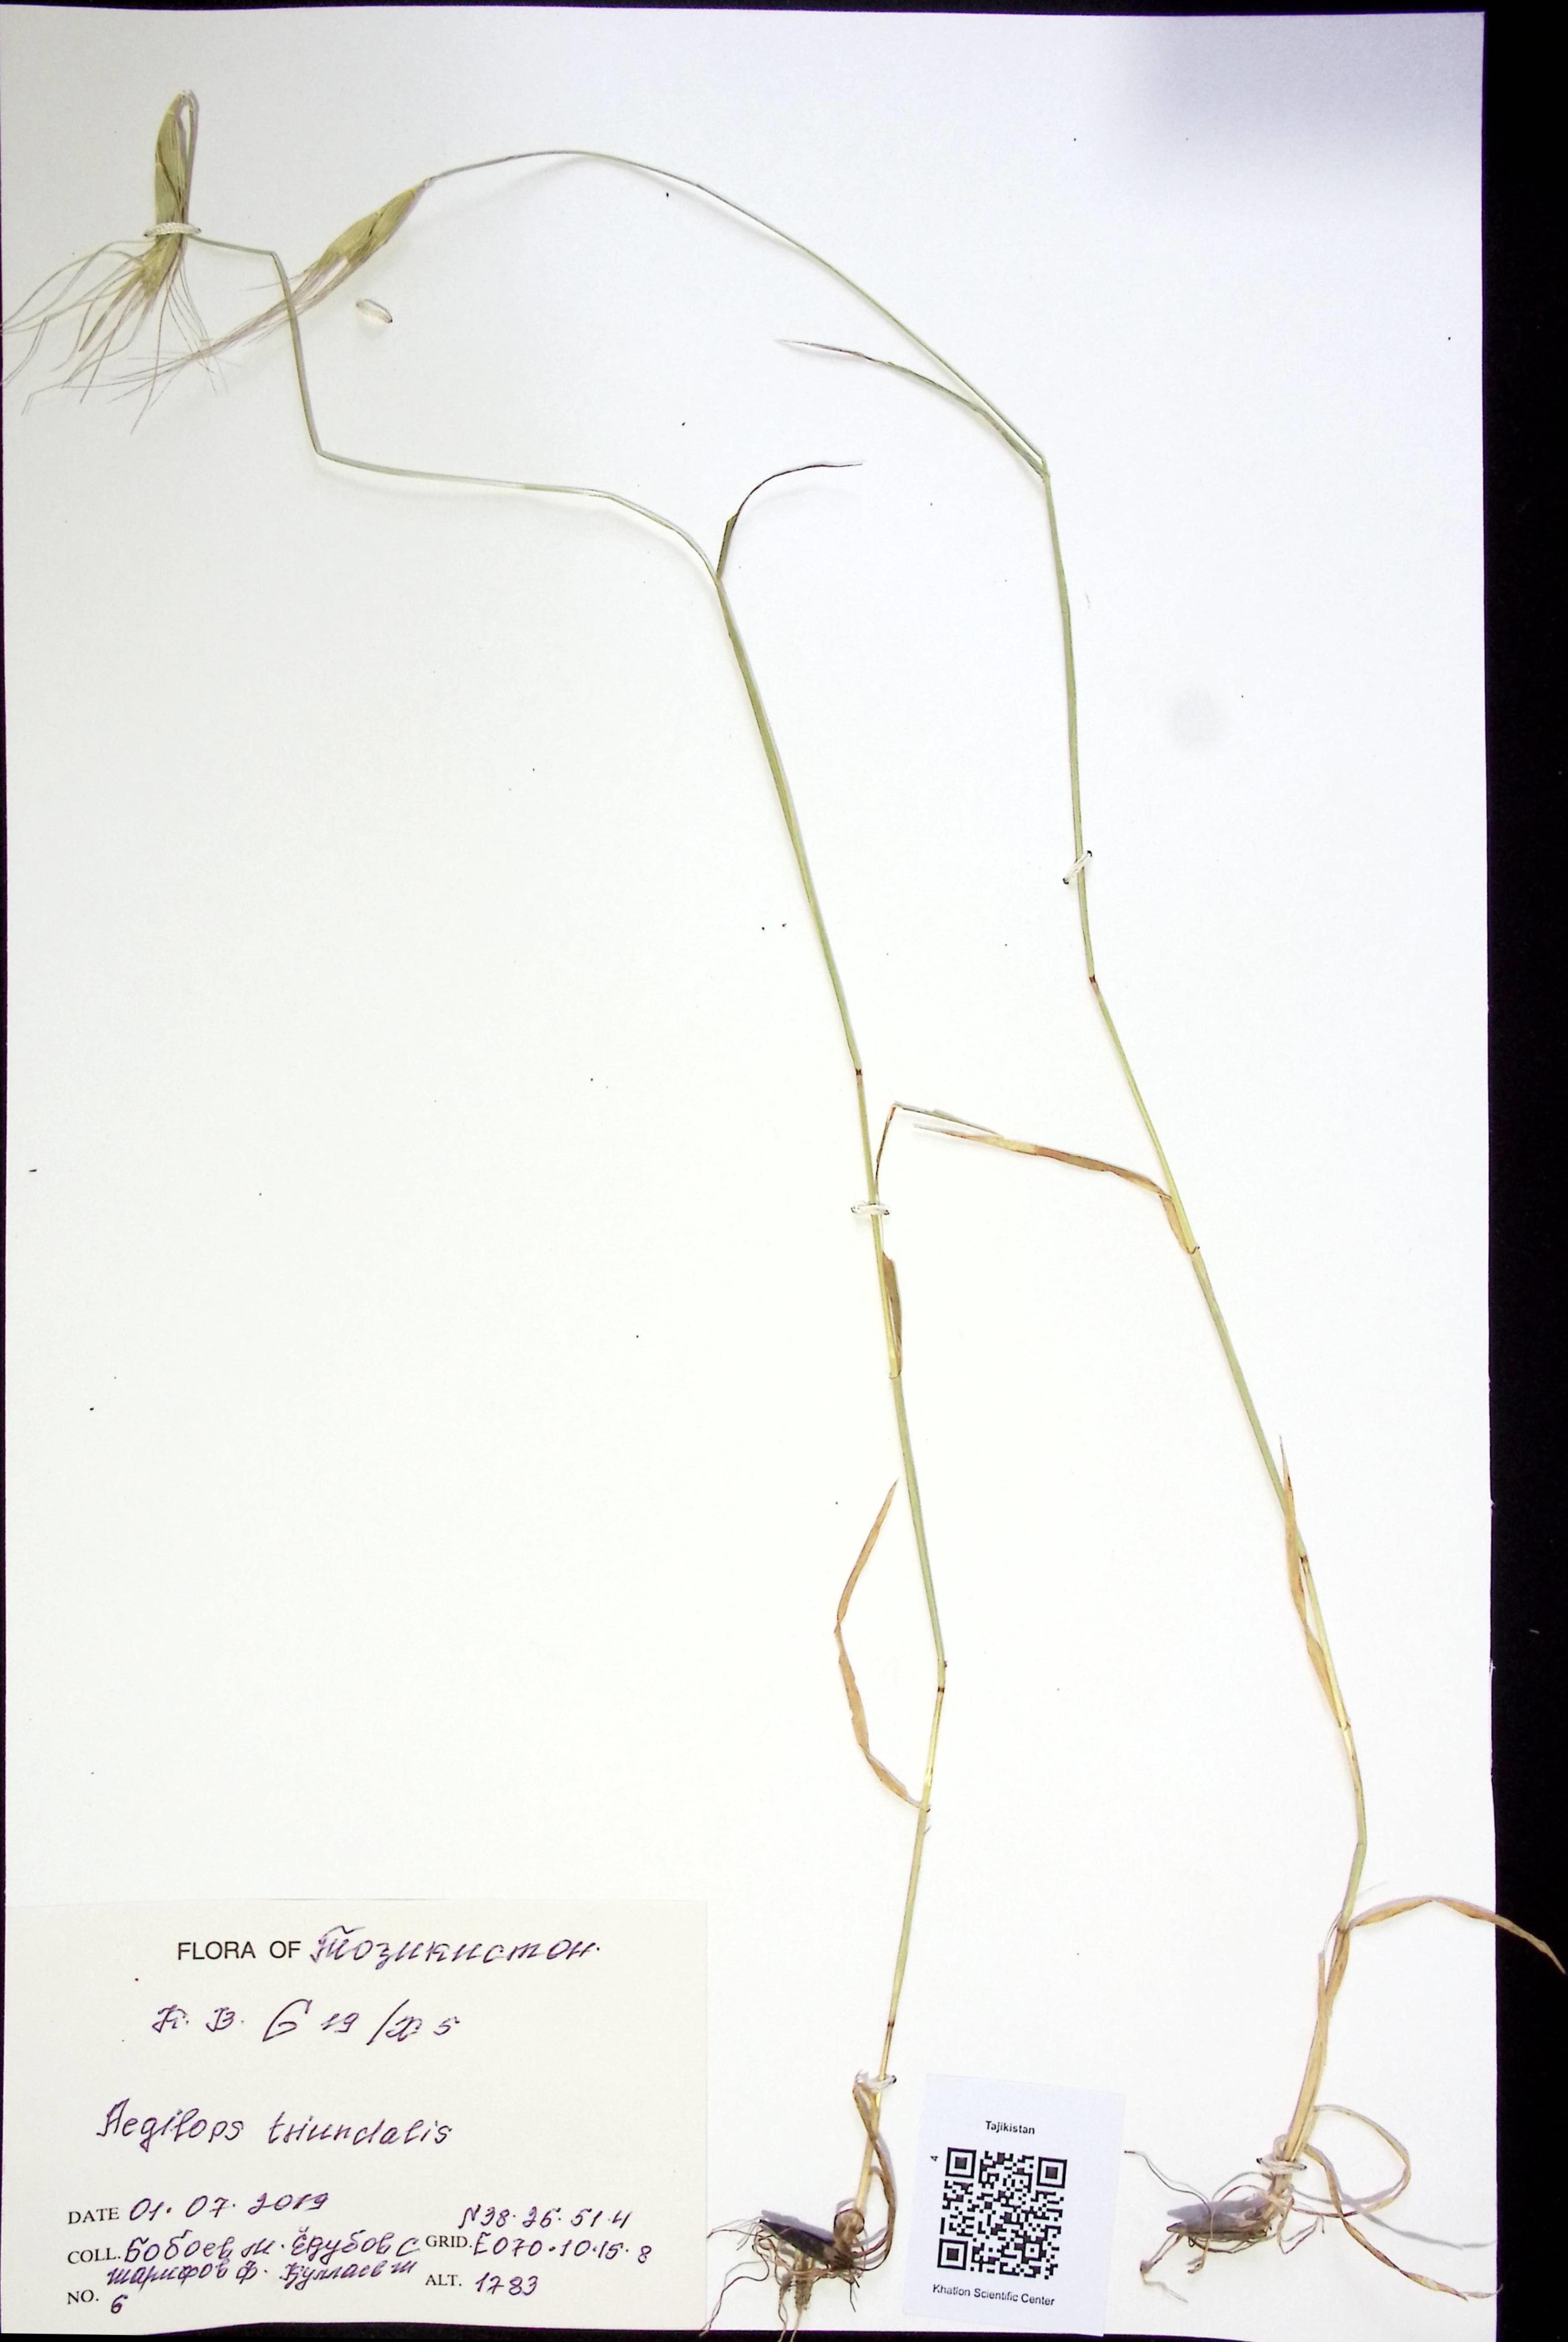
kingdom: Plantae
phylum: Tracheophyta
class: Liliopsida
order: Poales
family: Poaceae
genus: Aegilops
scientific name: Aegilops
